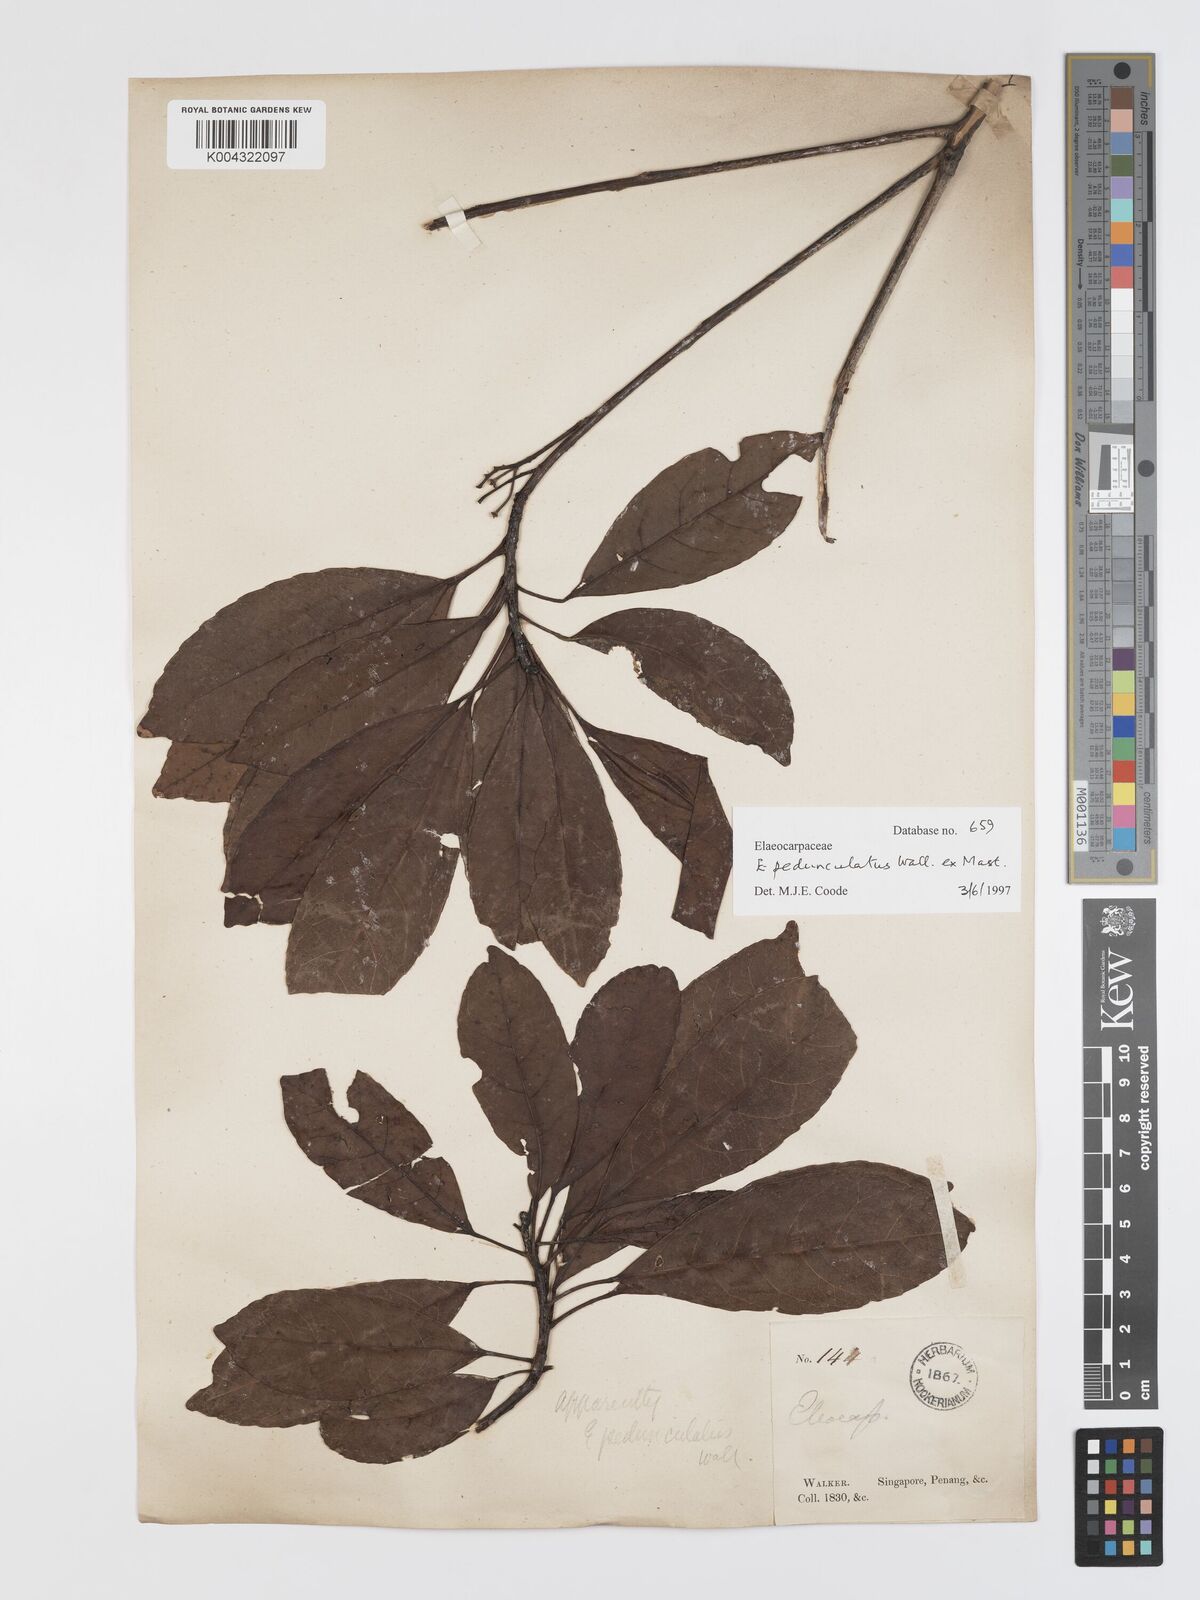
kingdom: Plantae
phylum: Tracheophyta
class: Magnoliopsida
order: Oxalidales
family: Elaeocarpaceae
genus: Elaeocarpus
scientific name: Elaeocarpus pedunculatus
